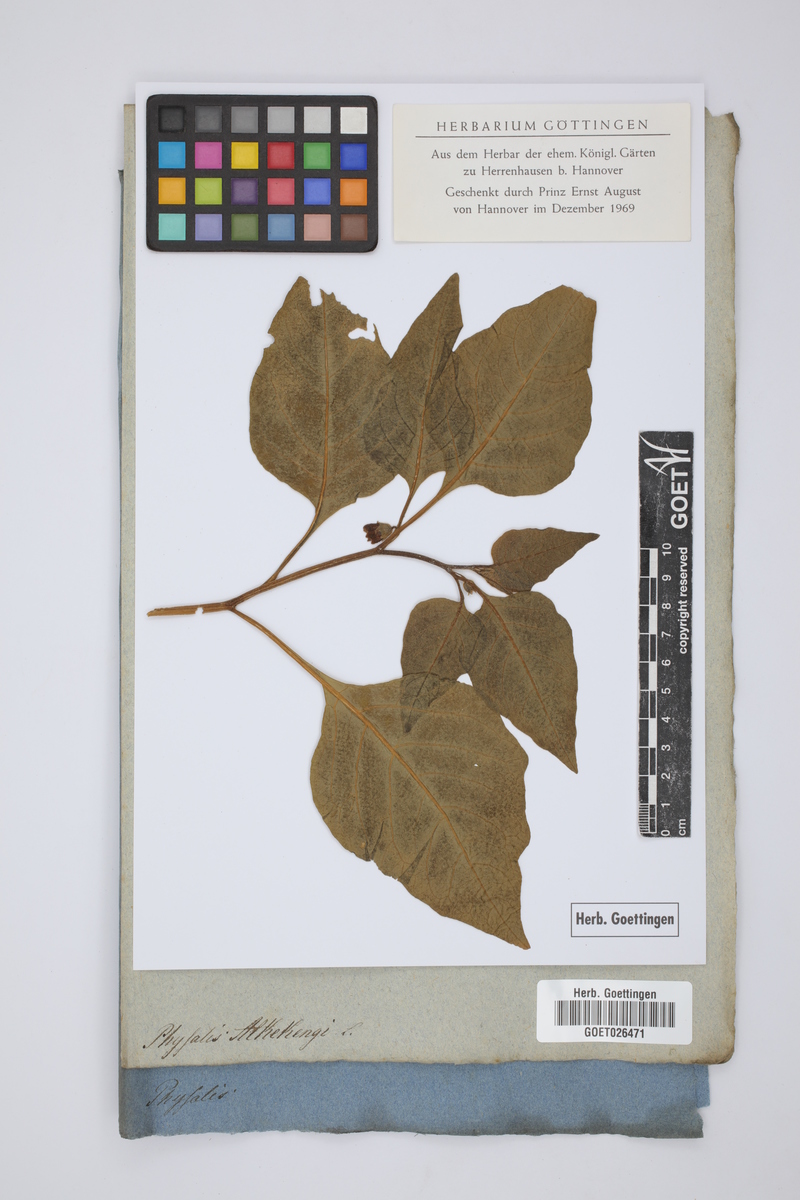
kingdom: Plantae
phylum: Tracheophyta
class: Magnoliopsida
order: Solanales
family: Solanaceae
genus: Alkekengi
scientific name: Alkekengi officinarum
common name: Japanese-lantern
